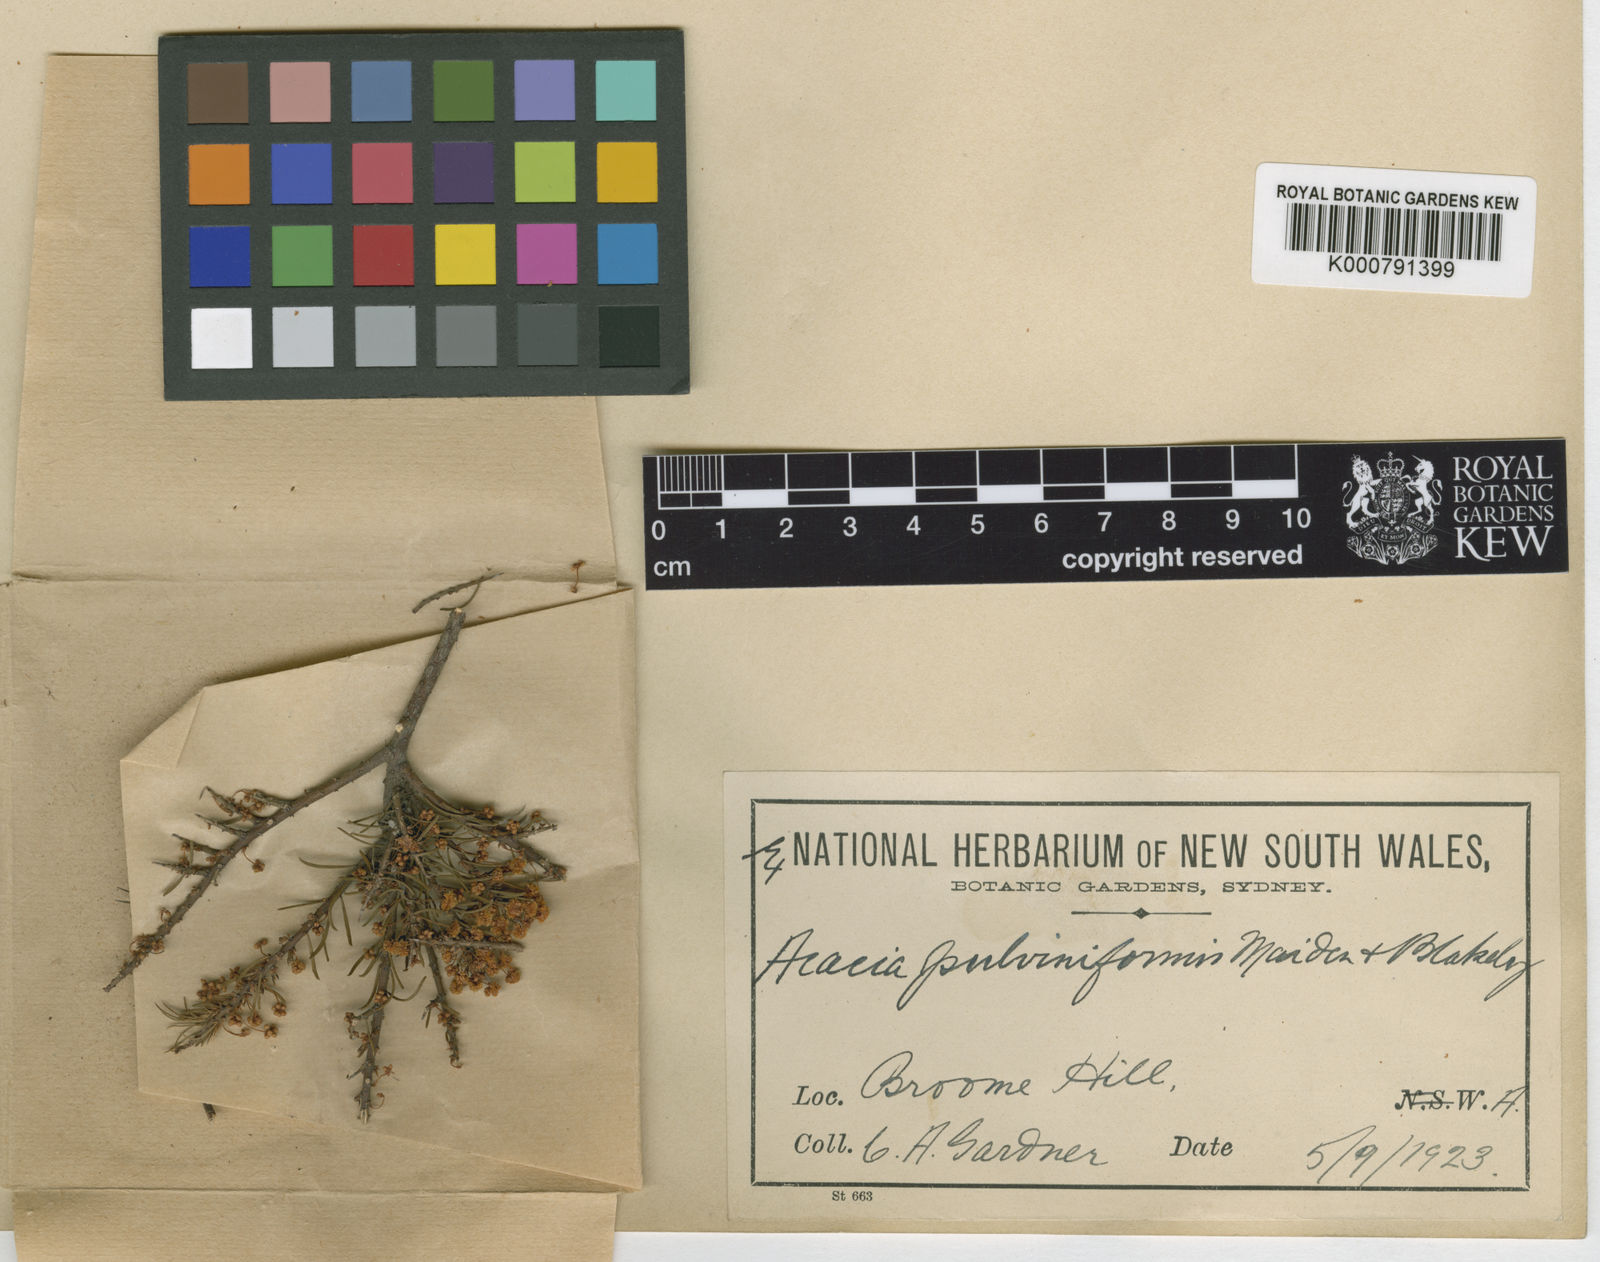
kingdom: Plantae
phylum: Tracheophyta
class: Magnoliopsida
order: Fabales
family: Fabaceae
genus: Acacia
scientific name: Acacia pulviniformis
